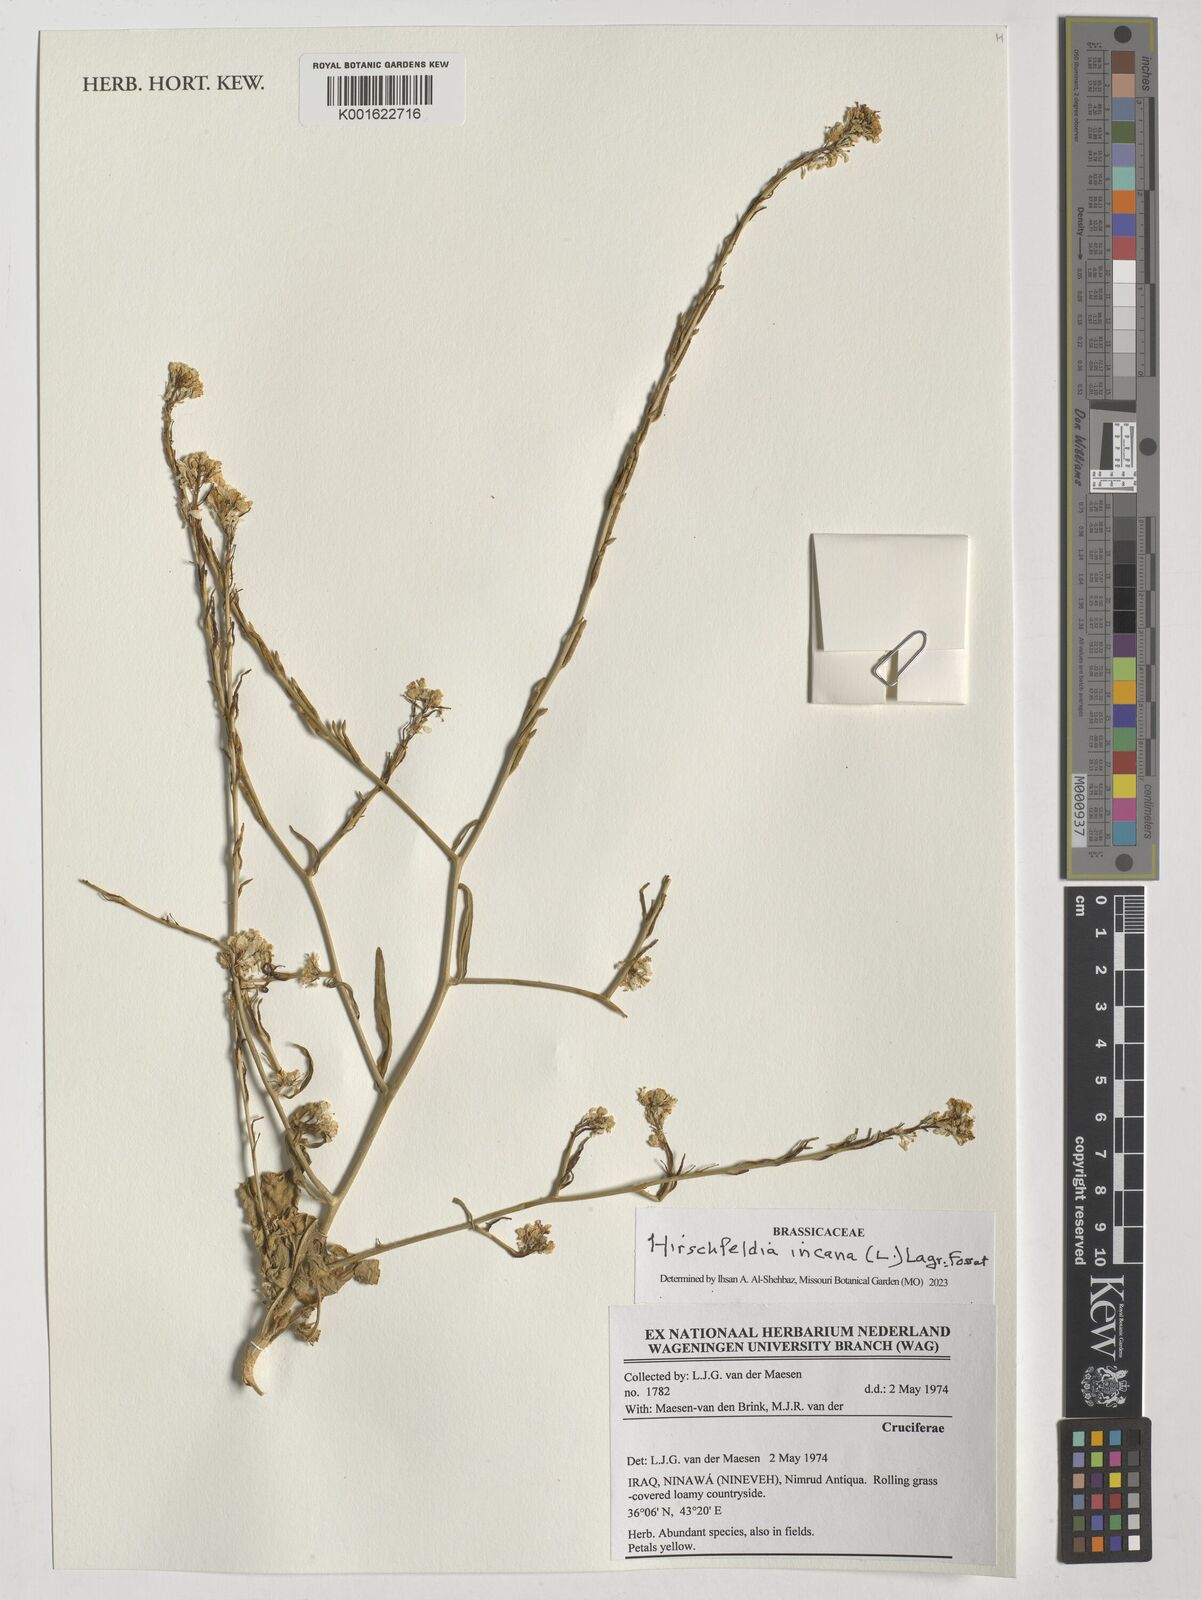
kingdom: Plantae
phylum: Tracheophyta
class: Magnoliopsida
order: Brassicales
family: Brassicaceae
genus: Hirschfeldia
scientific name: Hirschfeldia incana
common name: Hoary mustard
